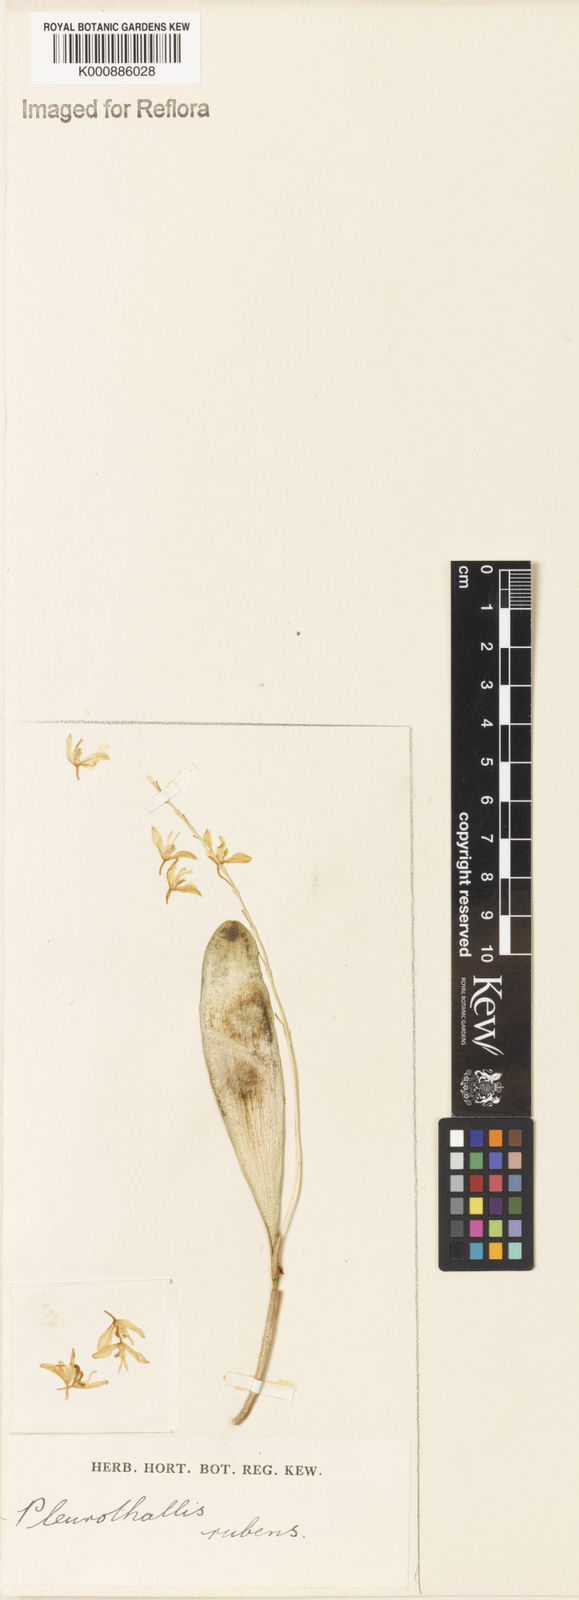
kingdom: Plantae
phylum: Tracheophyta
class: Liliopsida
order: Asparagales
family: Orchidaceae
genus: Stelis
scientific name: Stelis montserratii
